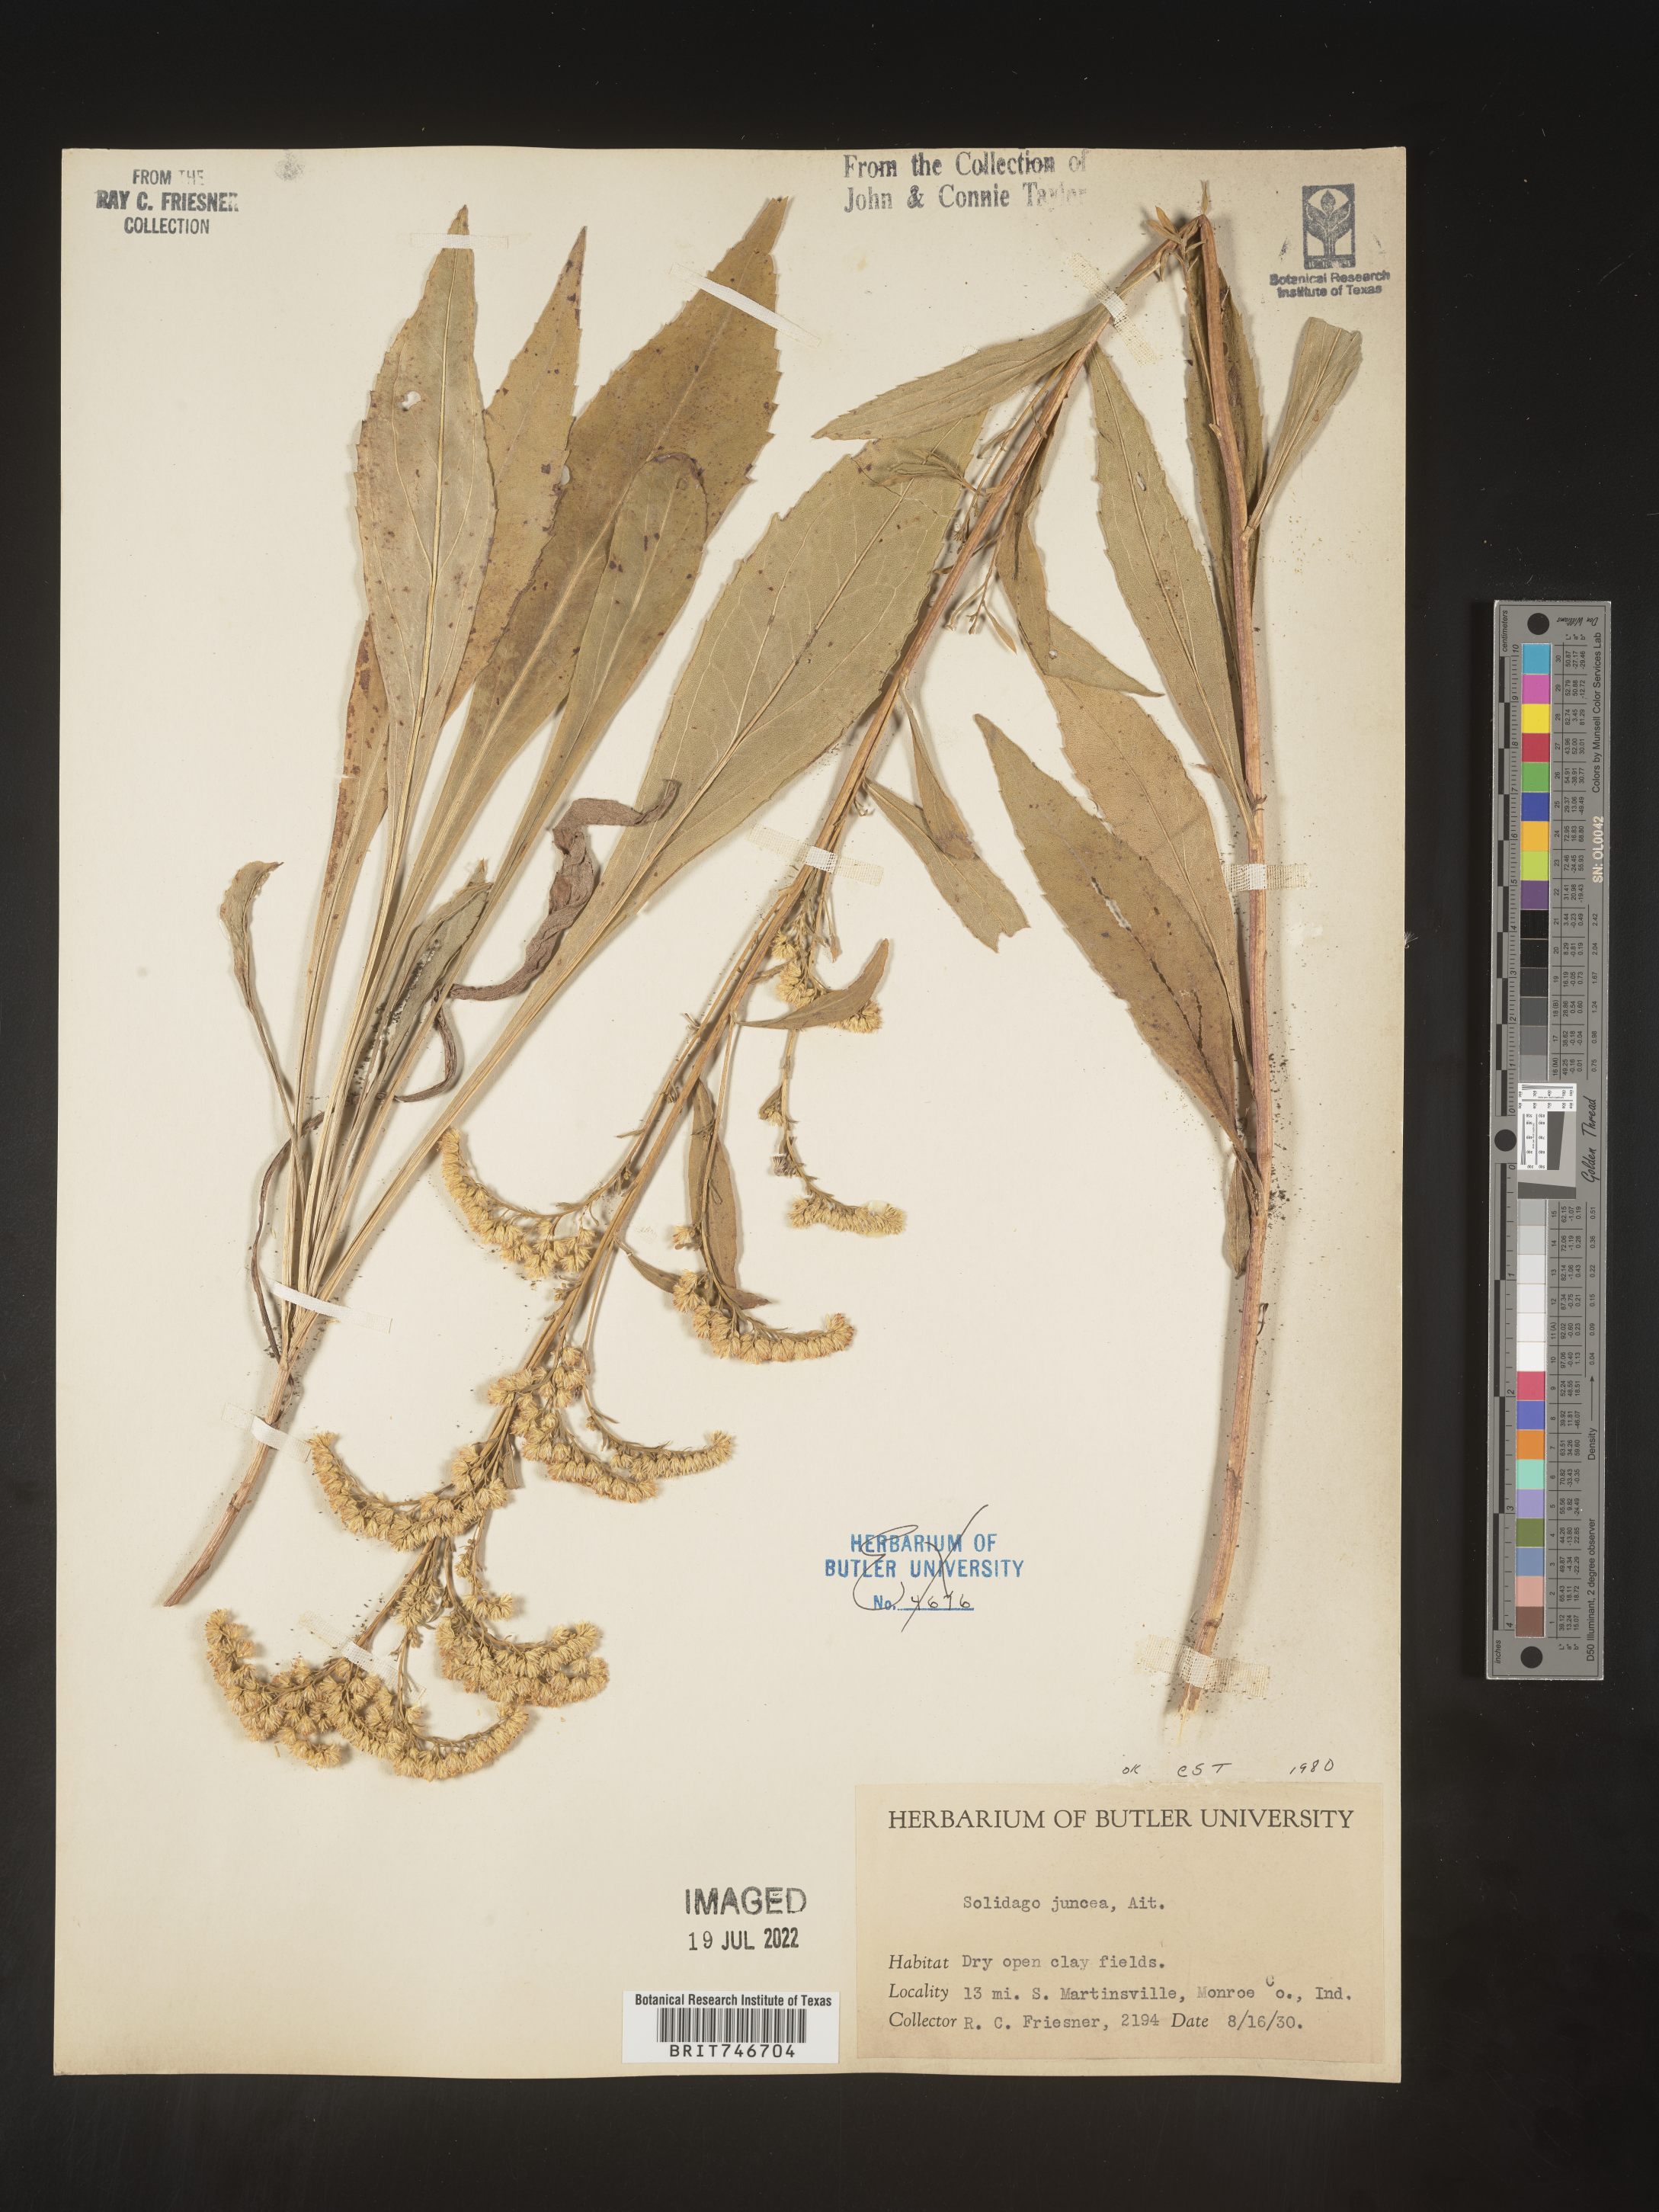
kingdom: Plantae
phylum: Tracheophyta
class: Magnoliopsida
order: Asterales
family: Asteraceae
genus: Solidago
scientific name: Solidago juncea
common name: Early goldenrod
